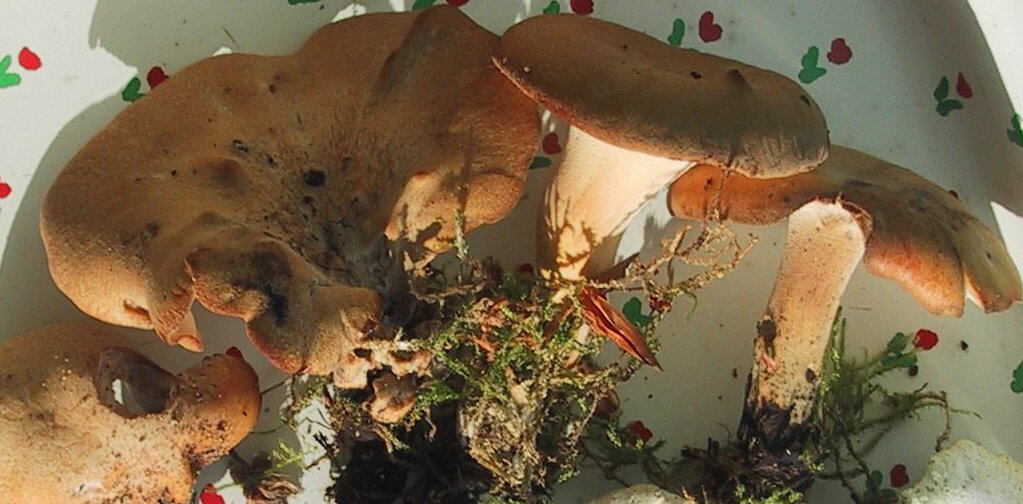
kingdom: Fungi
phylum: Basidiomycota
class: Agaricomycetes
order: Polyporales
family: Polyporaceae
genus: Cerioporus
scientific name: Cerioporus varius
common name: foranderlig stilkporesvamp
